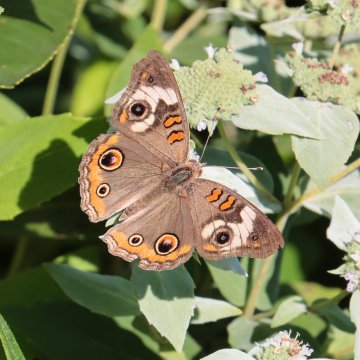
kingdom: Animalia
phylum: Arthropoda
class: Insecta
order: Lepidoptera
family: Nymphalidae
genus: Junonia
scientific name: Junonia coenia
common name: Common Buckeye
